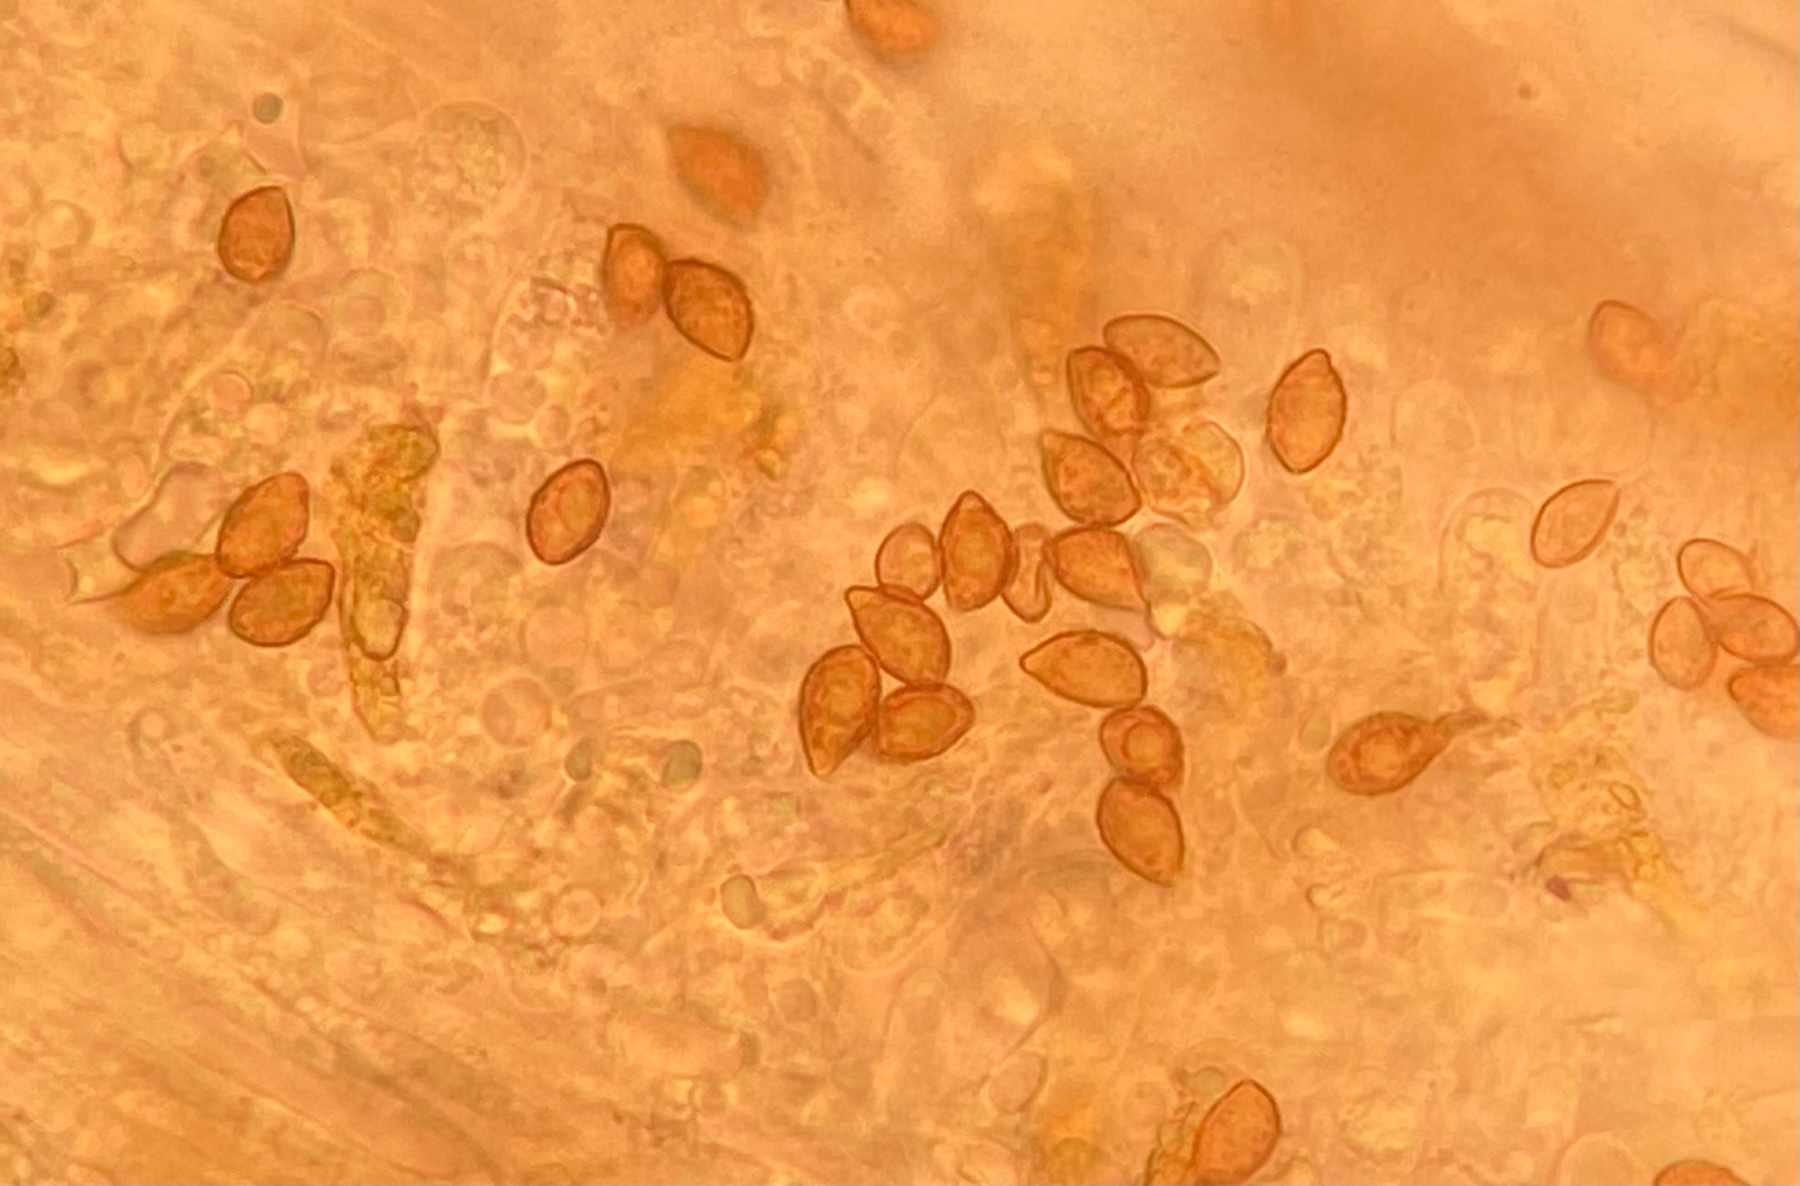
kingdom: Fungi
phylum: Basidiomycota
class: Agaricomycetes
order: Agaricales
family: Cortinariaceae
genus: Calonarius
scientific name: Calonarius alcalinophilus
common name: gyldenbrun slørhat
